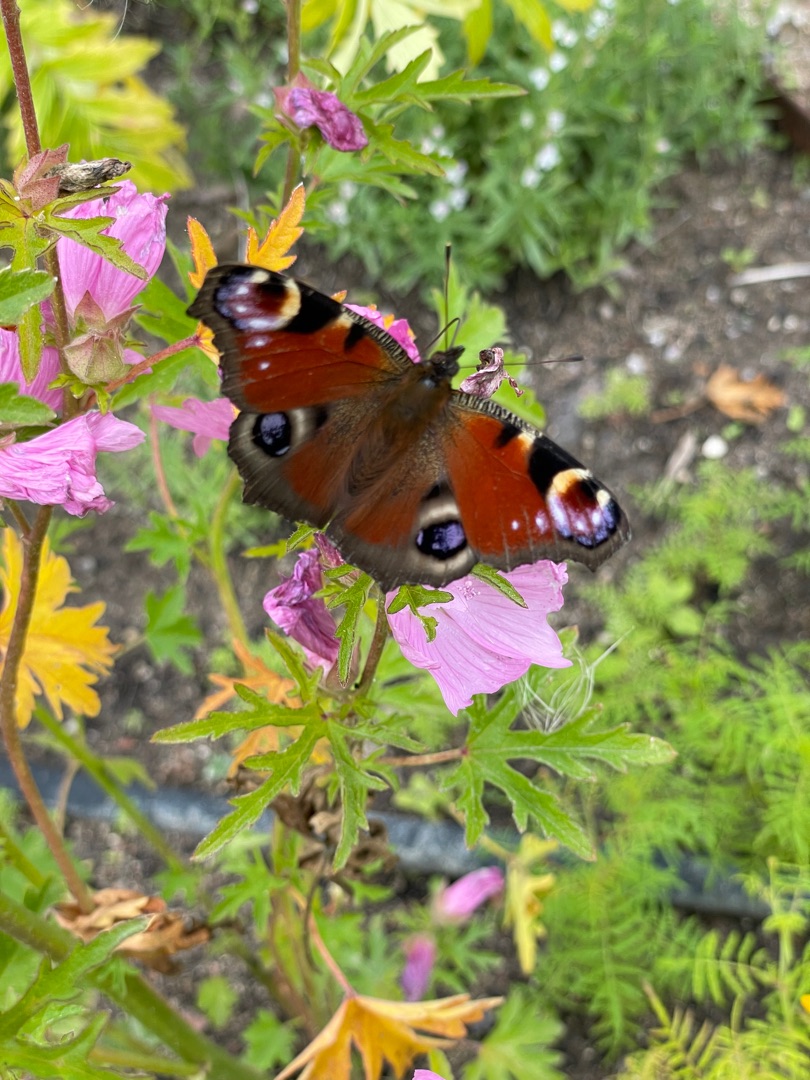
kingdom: Animalia
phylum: Arthropoda
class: Insecta
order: Lepidoptera
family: Nymphalidae
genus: Aglais
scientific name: Aglais io
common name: Dagpåfugleøje
